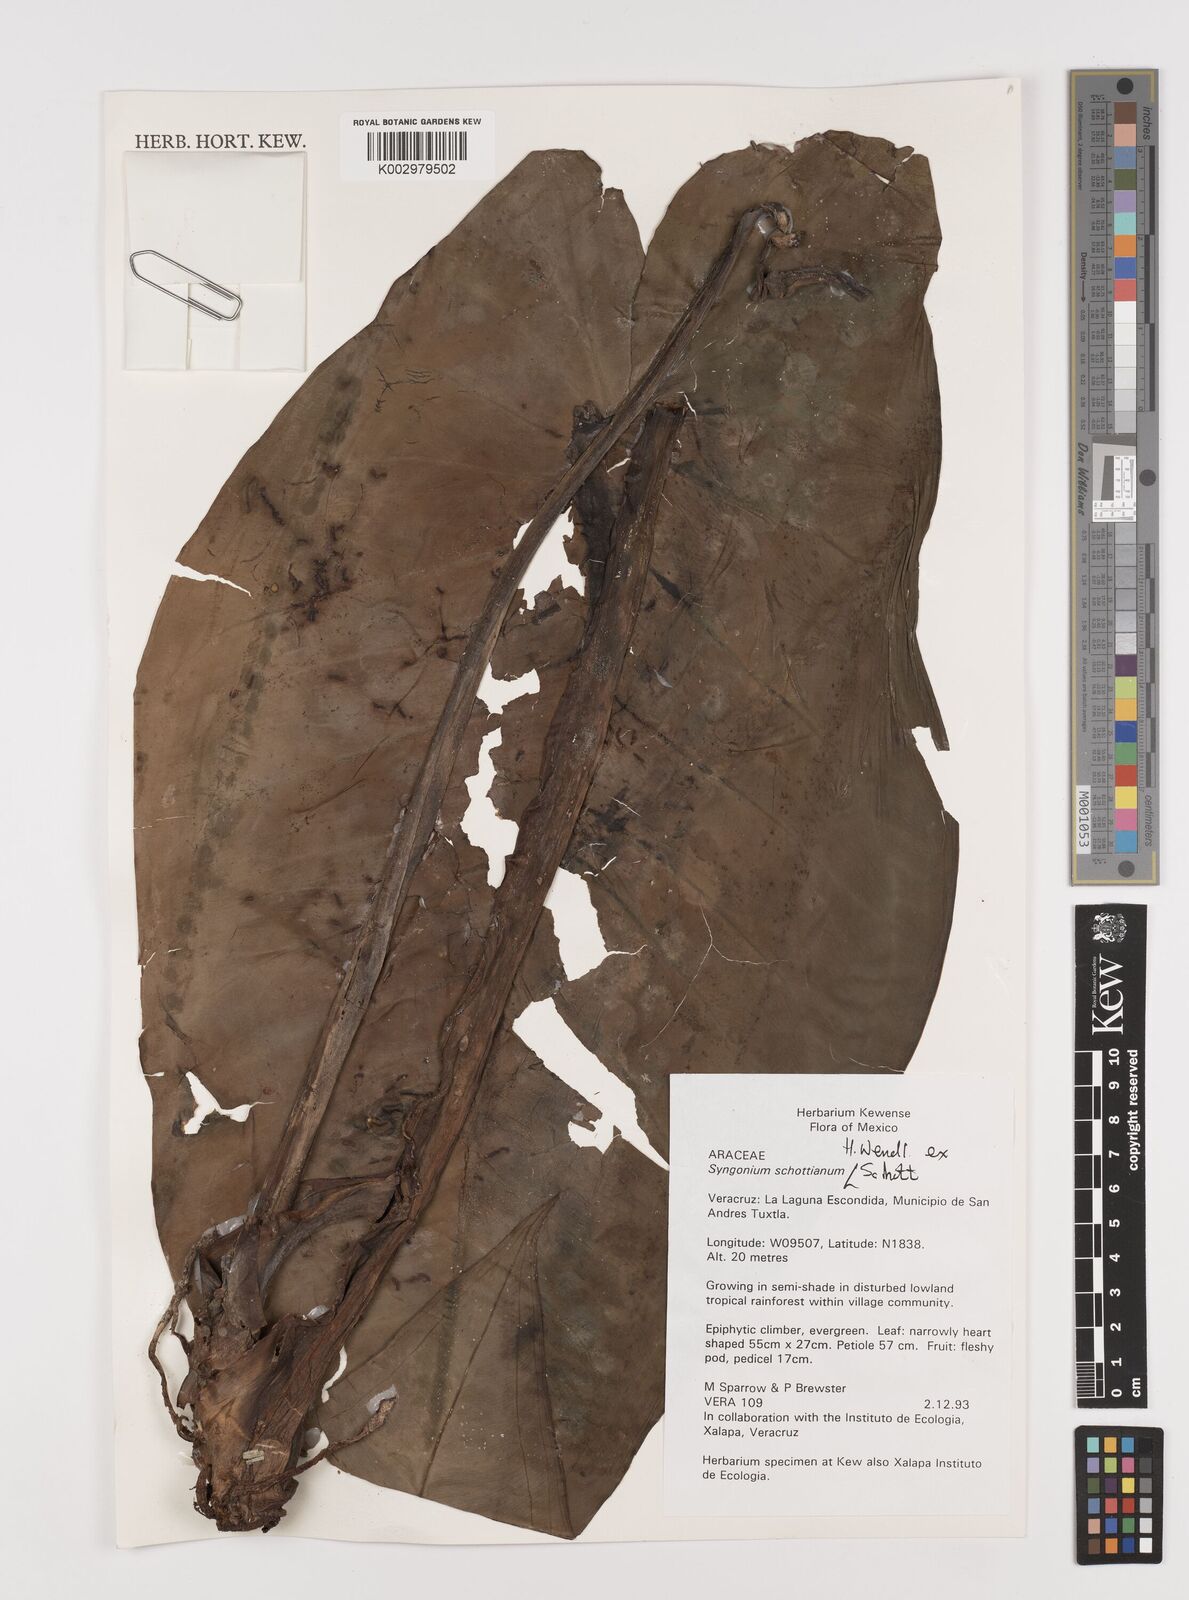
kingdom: Plantae
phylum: Tracheophyta
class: Liliopsida
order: Alismatales
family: Araceae
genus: Syngonium
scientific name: Syngonium schottianum
